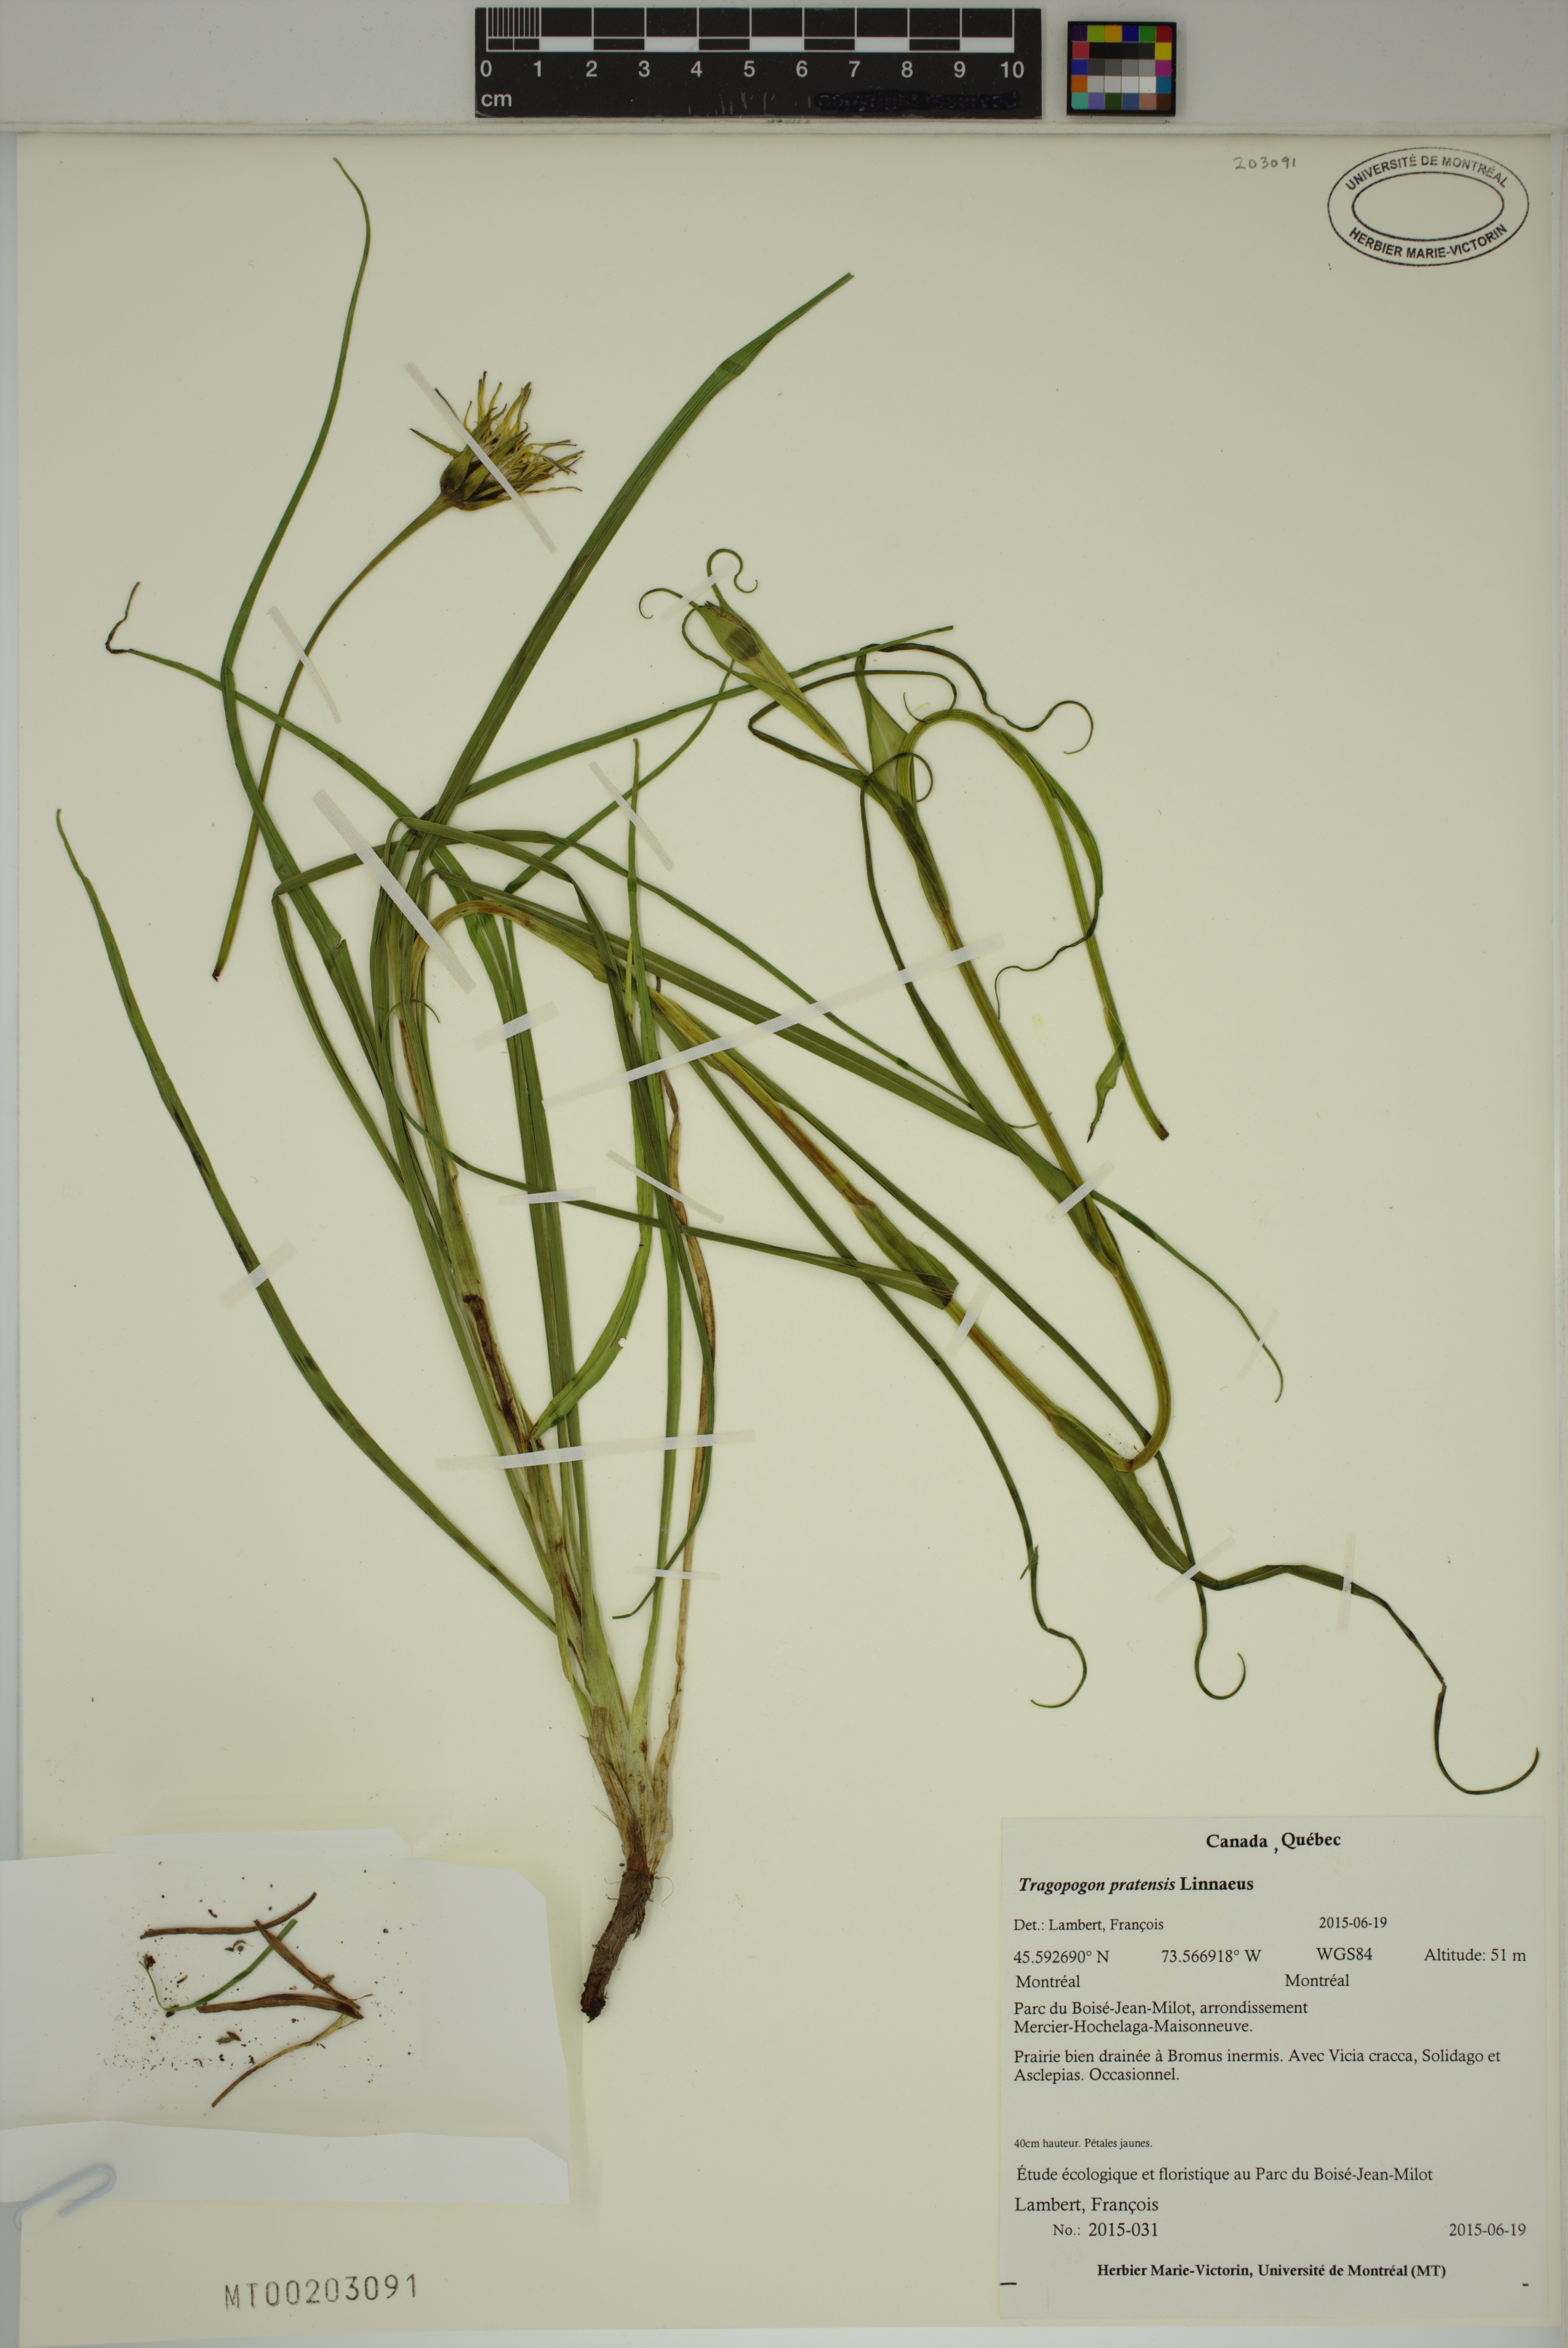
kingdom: Plantae
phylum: Tracheophyta
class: Magnoliopsida
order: Asterales
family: Asteraceae
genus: Tragopogon
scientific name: Tragopogon pratensis
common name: Goat's-beard
